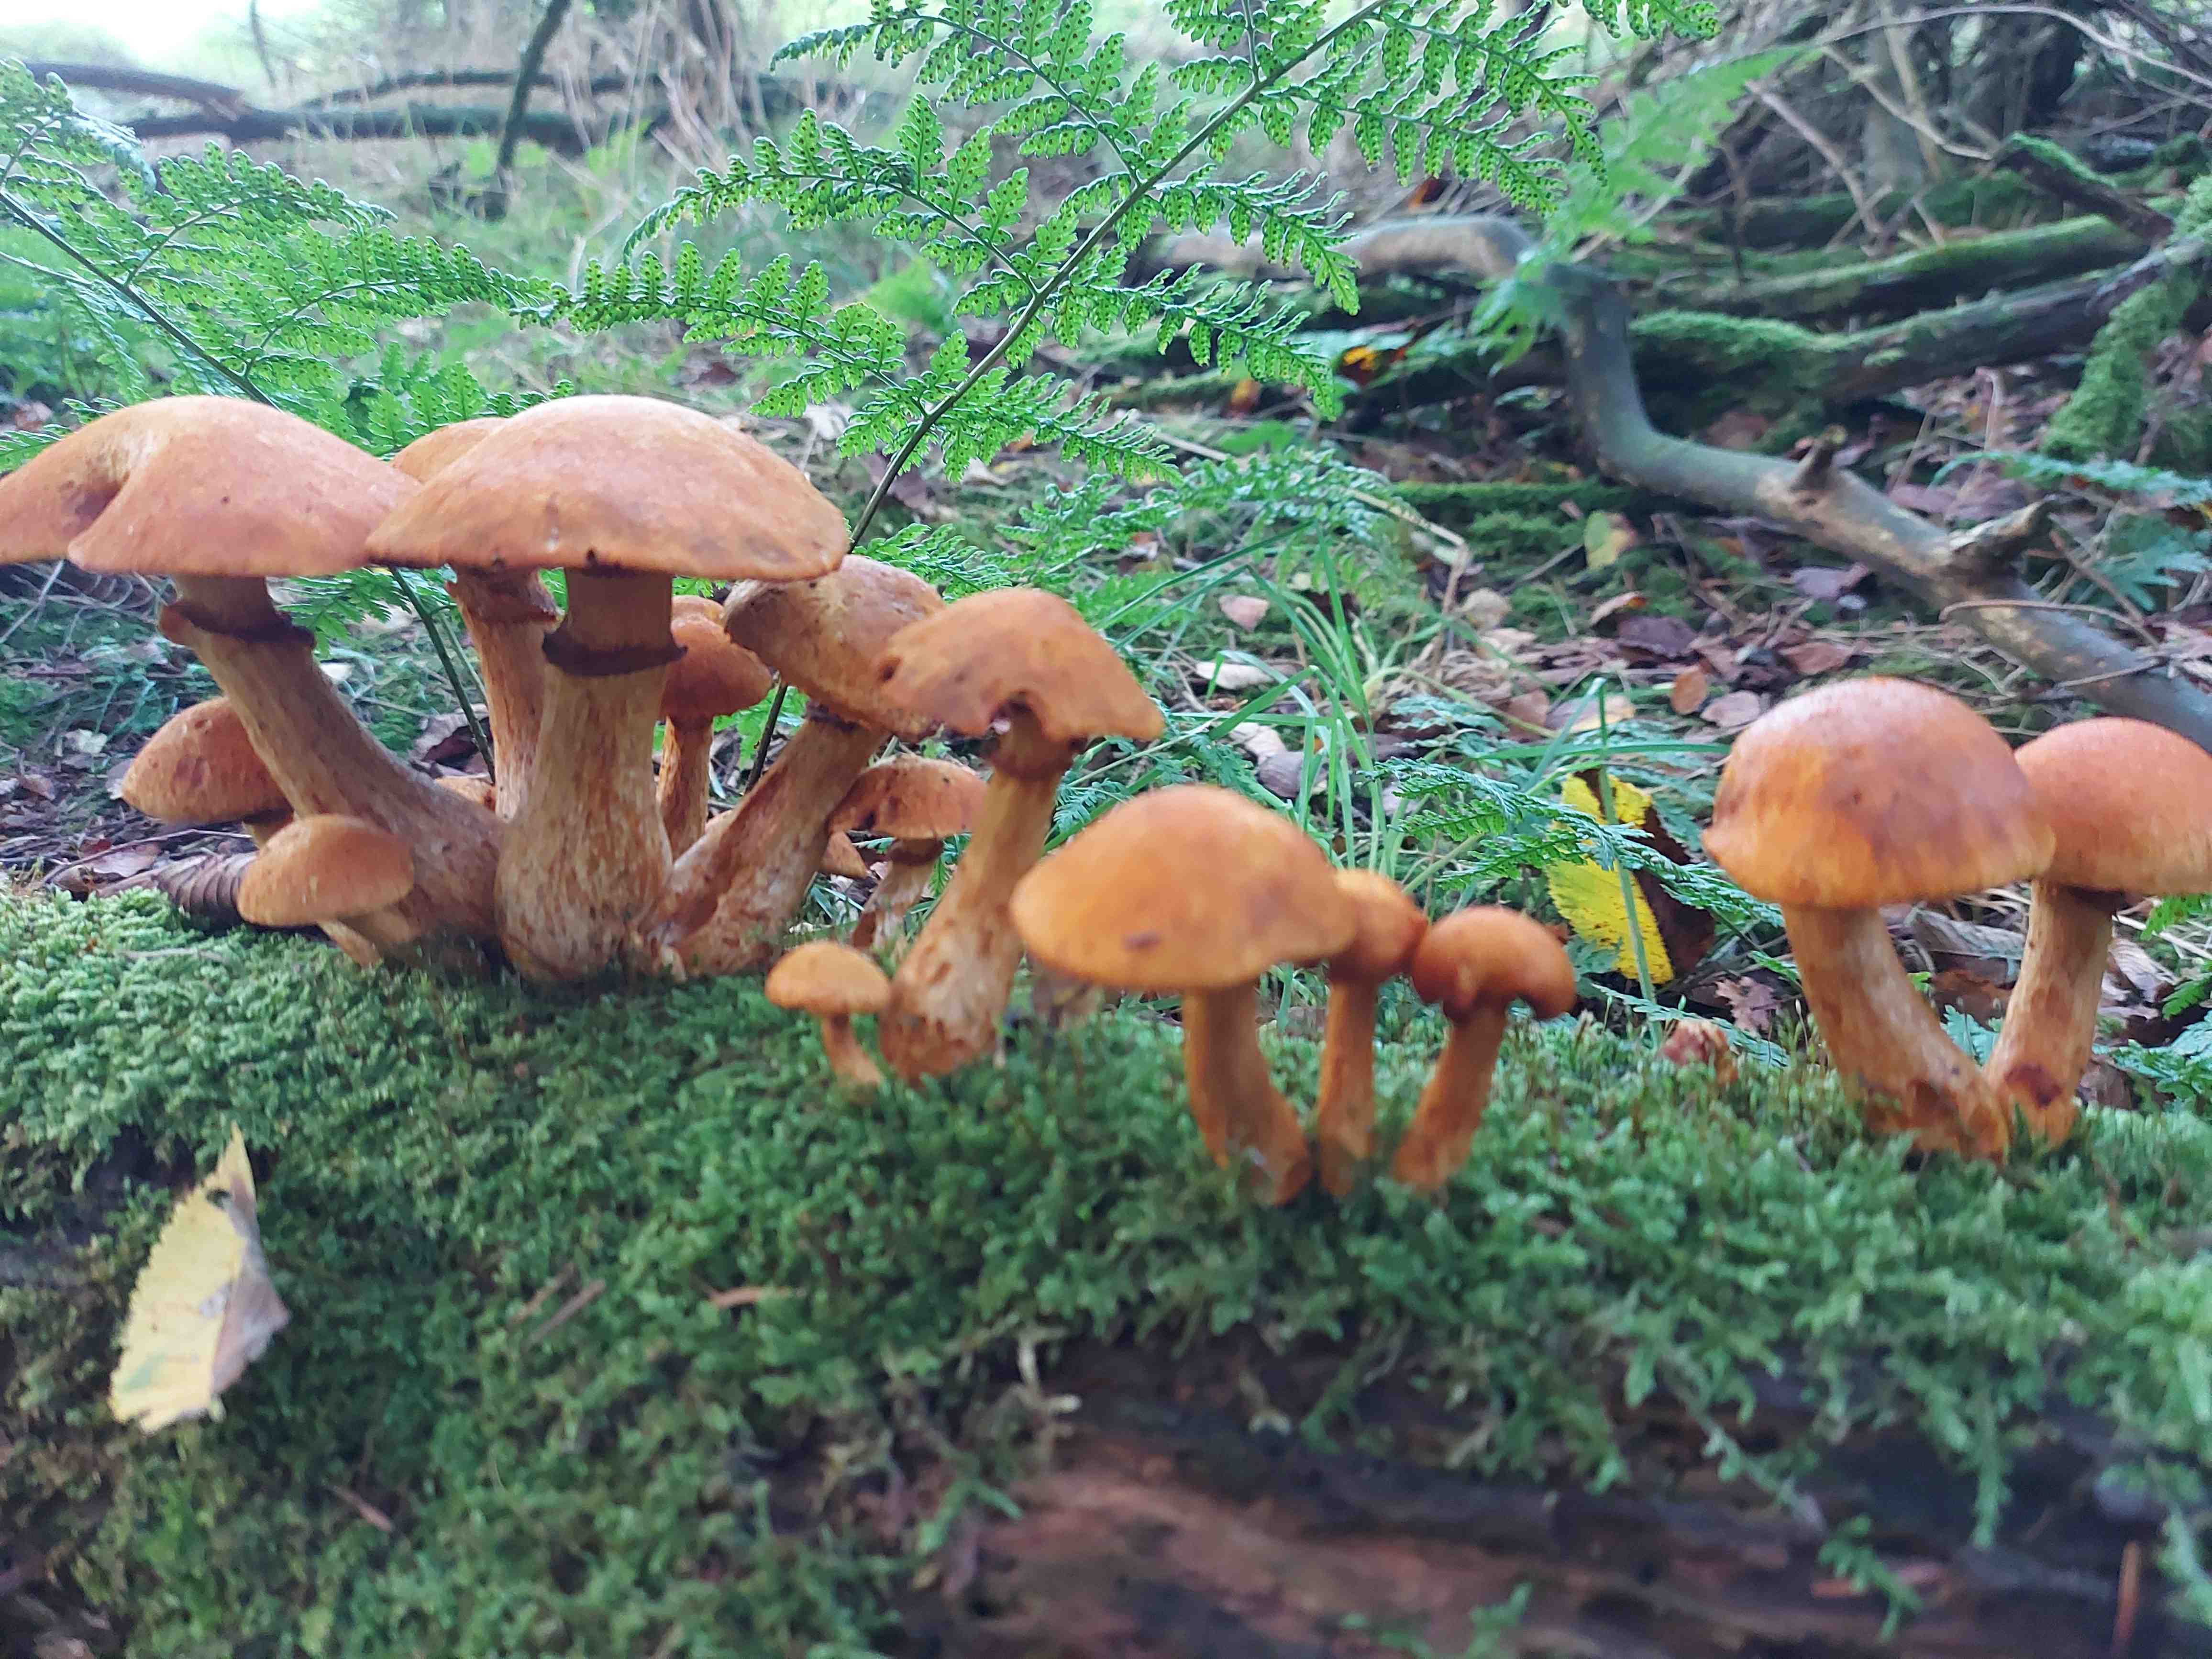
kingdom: Fungi
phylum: Basidiomycota
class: Agaricomycetes
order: Agaricales
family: Hymenogastraceae
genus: Gymnopilus
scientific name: Gymnopilus spectabilis
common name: fibret flammehat
